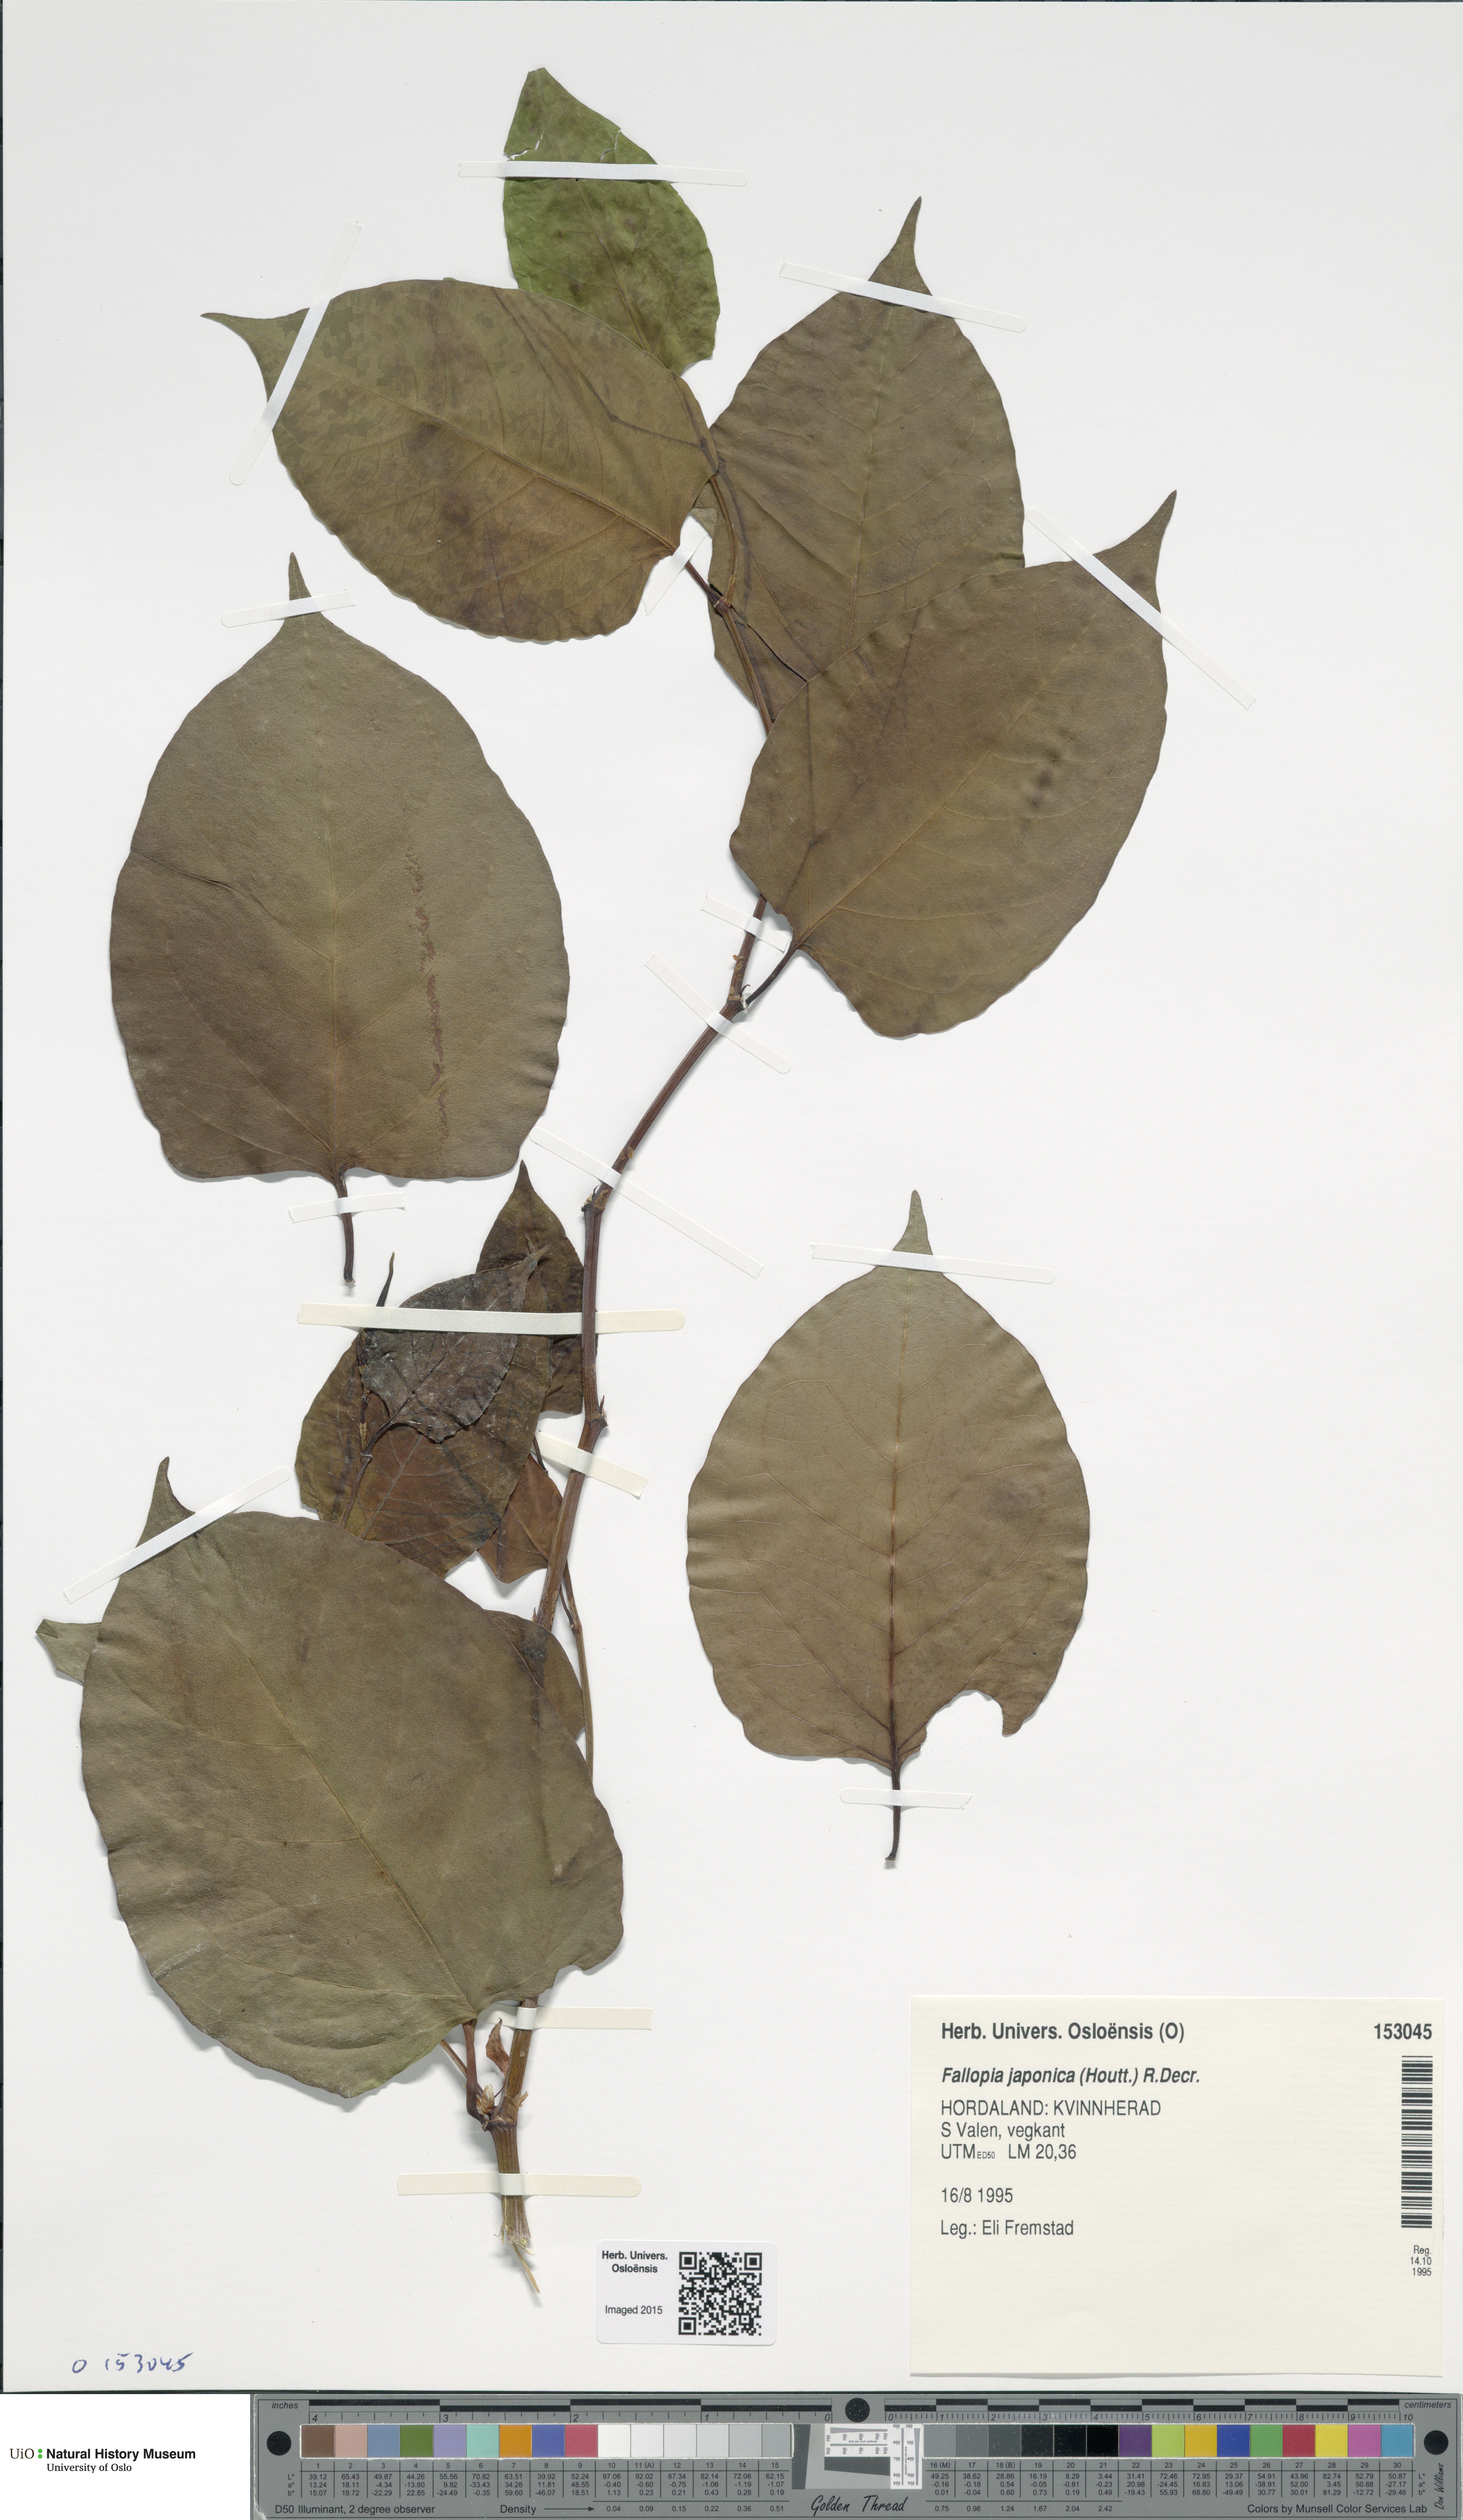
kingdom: Plantae
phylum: Tracheophyta
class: Magnoliopsida
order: Caryophyllales
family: Polygonaceae
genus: Reynoutria
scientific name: Reynoutria japonica
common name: Japanese knotweed
